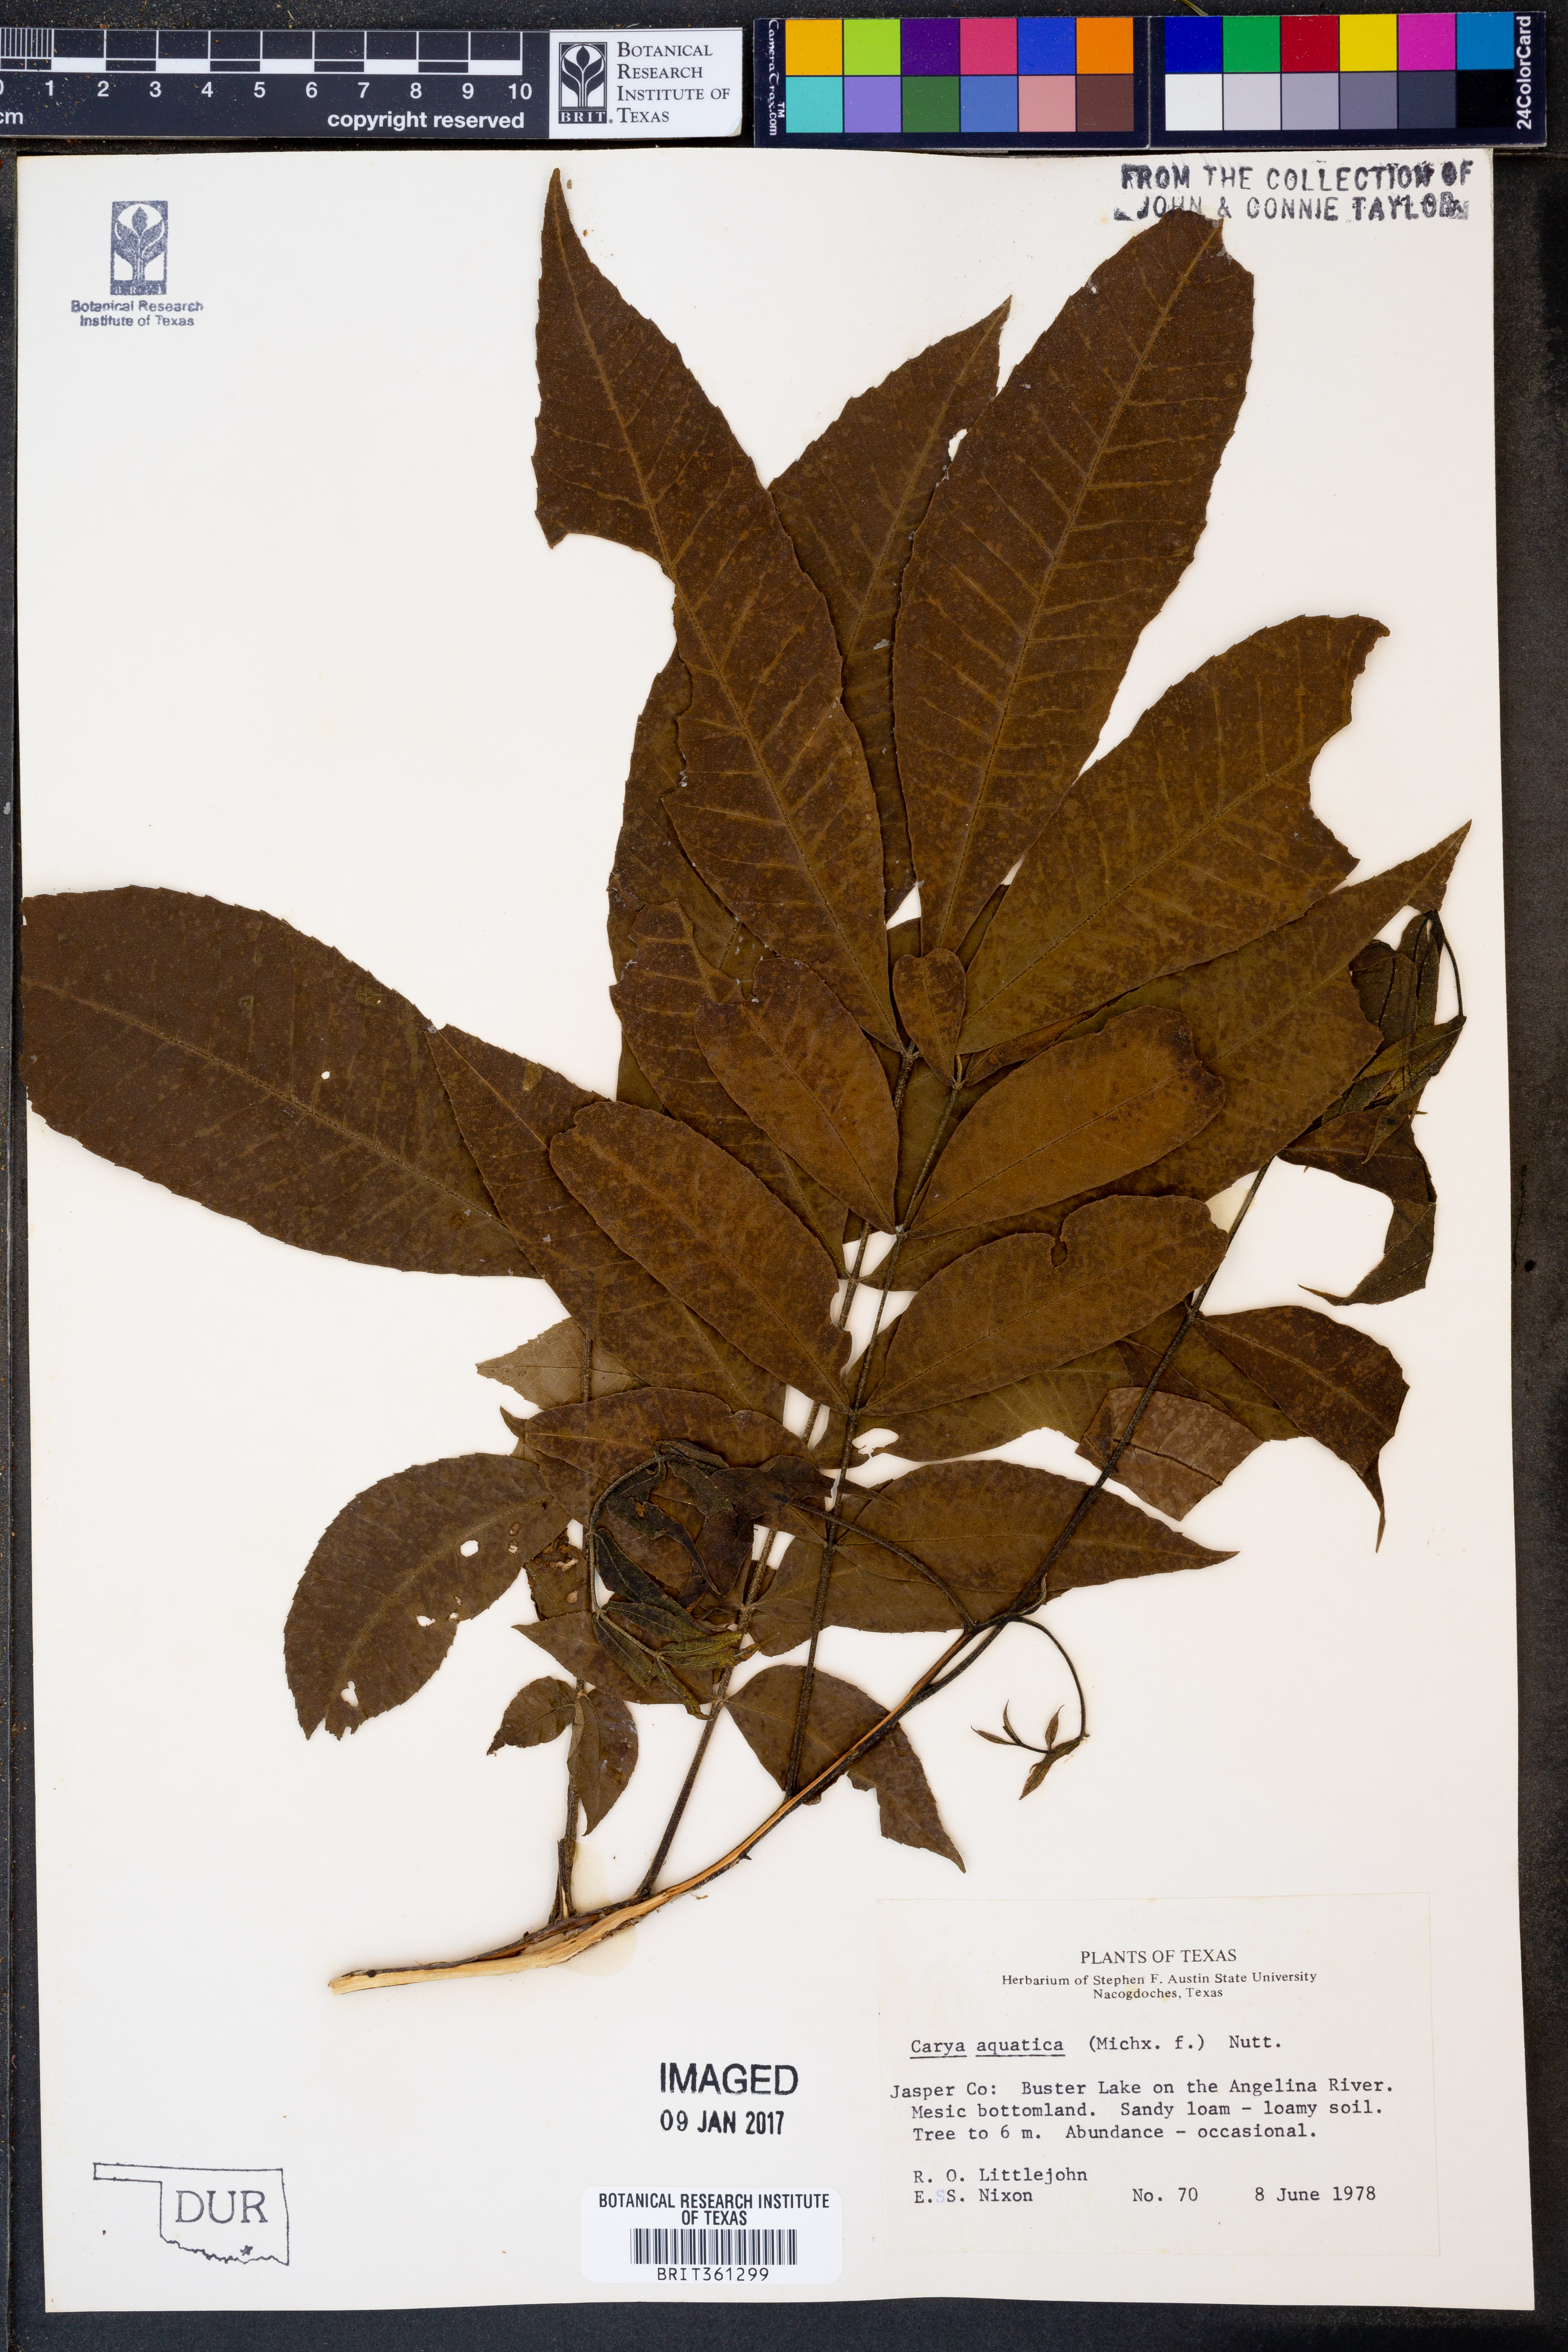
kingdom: Plantae
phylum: Tracheophyta
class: Magnoliopsida
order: Fagales
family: Juglandaceae
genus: Carya
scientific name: Carya aquatica
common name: Water hickory
